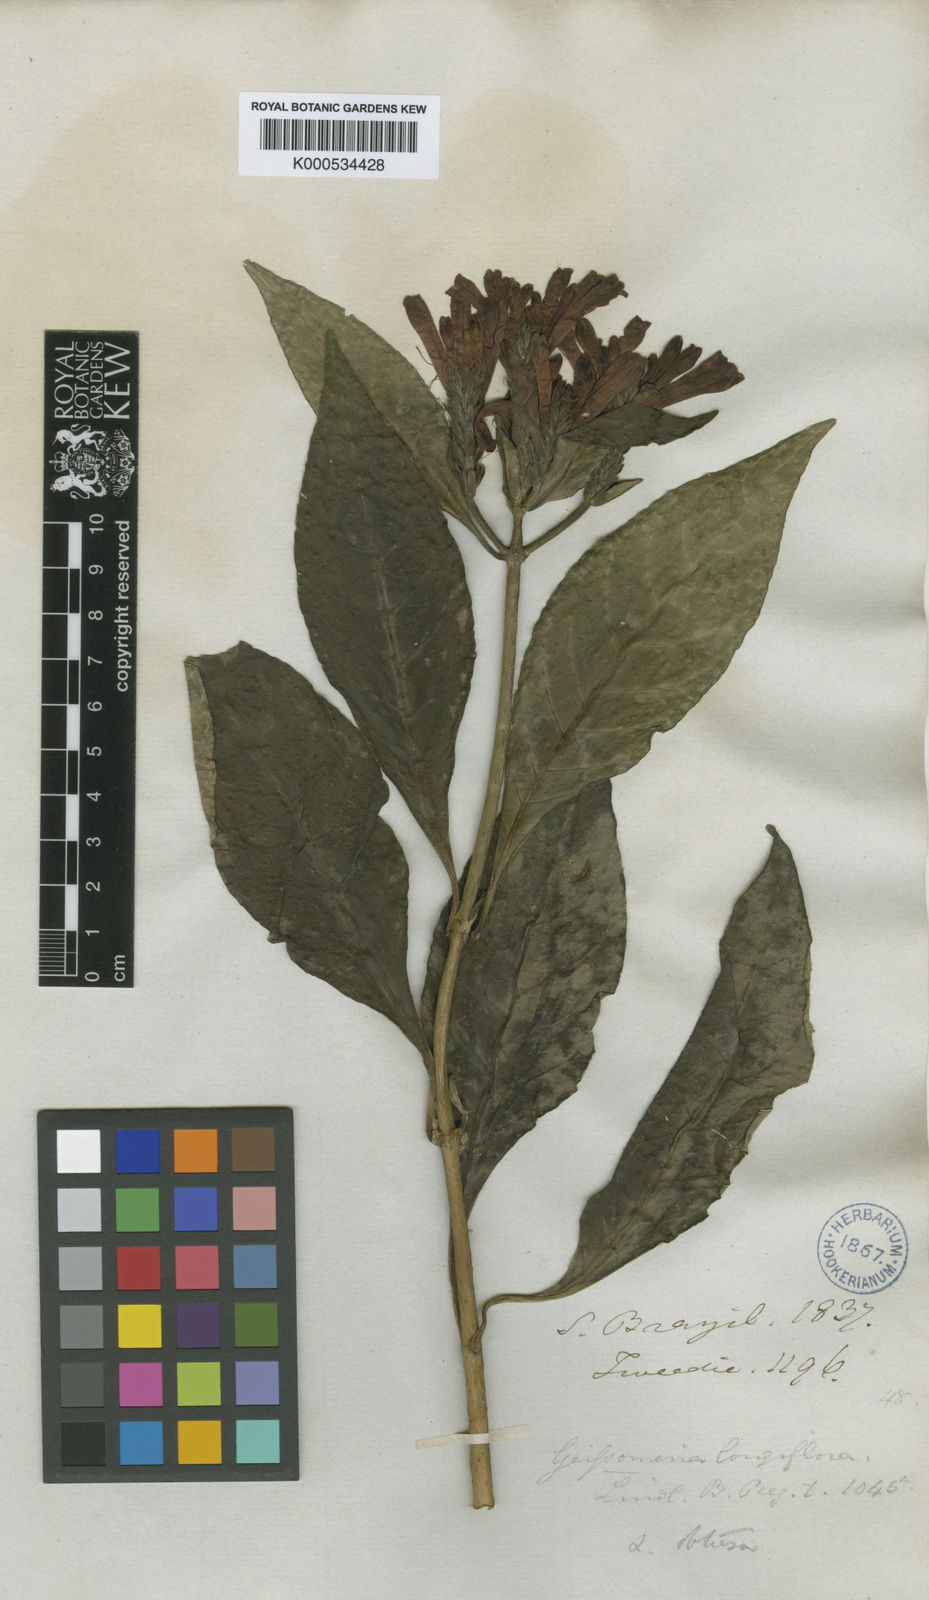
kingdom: Plantae
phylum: Tracheophyta
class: Magnoliopsida
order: Lamiales
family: Acanthaceae
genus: Aphelandra
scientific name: Aphelandra longiflora
